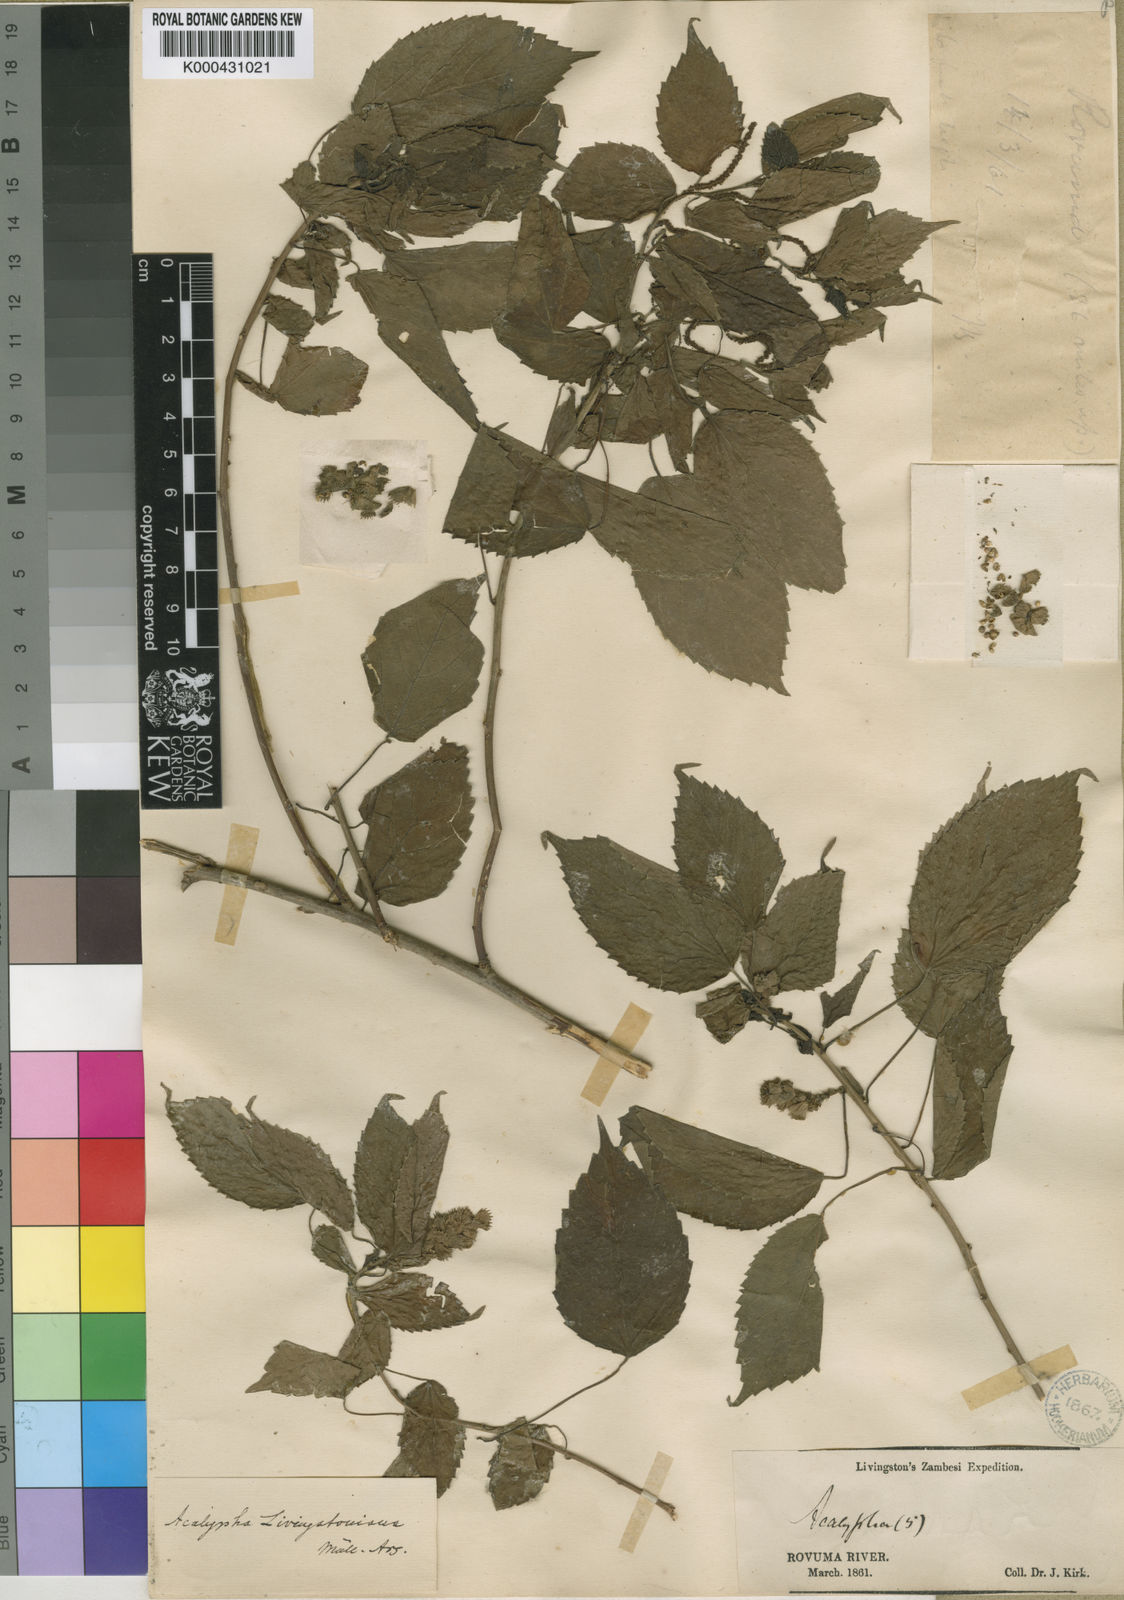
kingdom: Plantae
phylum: Tracheophyta
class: Magnoliopsida
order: Malpighiales
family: Euphorbiaceae
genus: Acalypha
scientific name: Acalypha ornata
